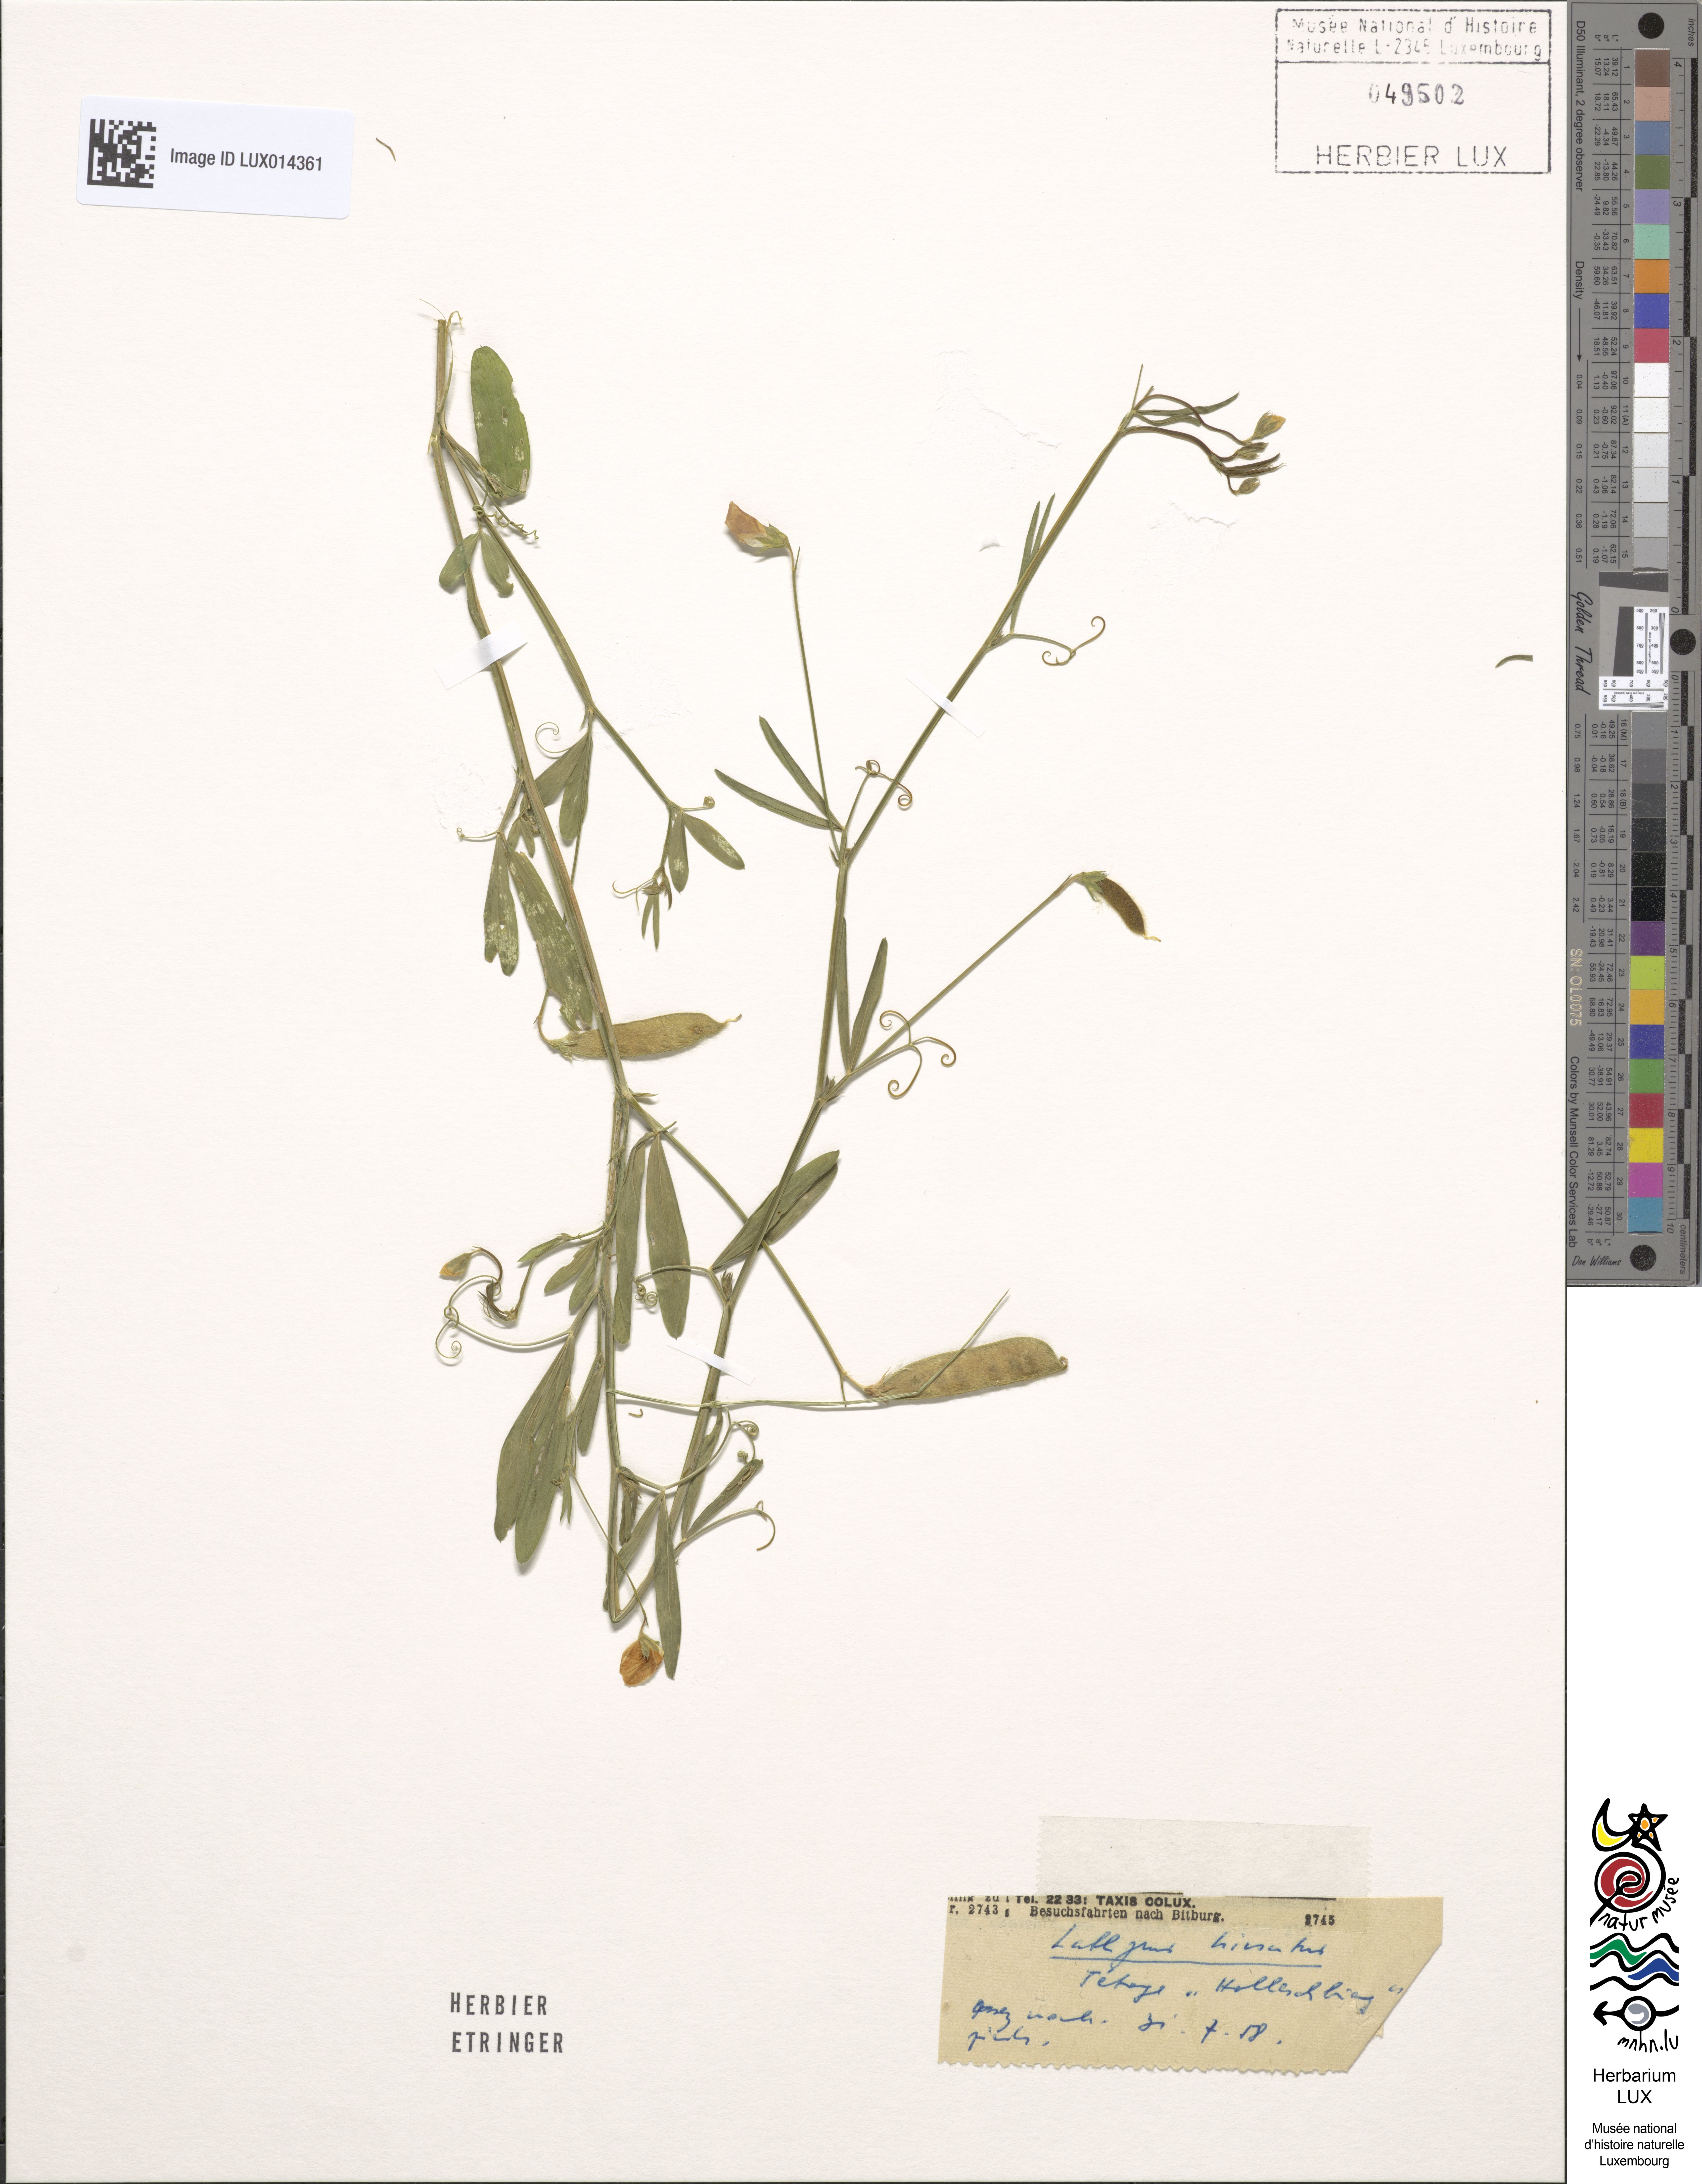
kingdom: Plantae
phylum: Tracheophyta
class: Magnoliopsida
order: Fabales
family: Fabaceae
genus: Lathyrus
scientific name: Lathyrus hirsutus
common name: Hairy vetchling
